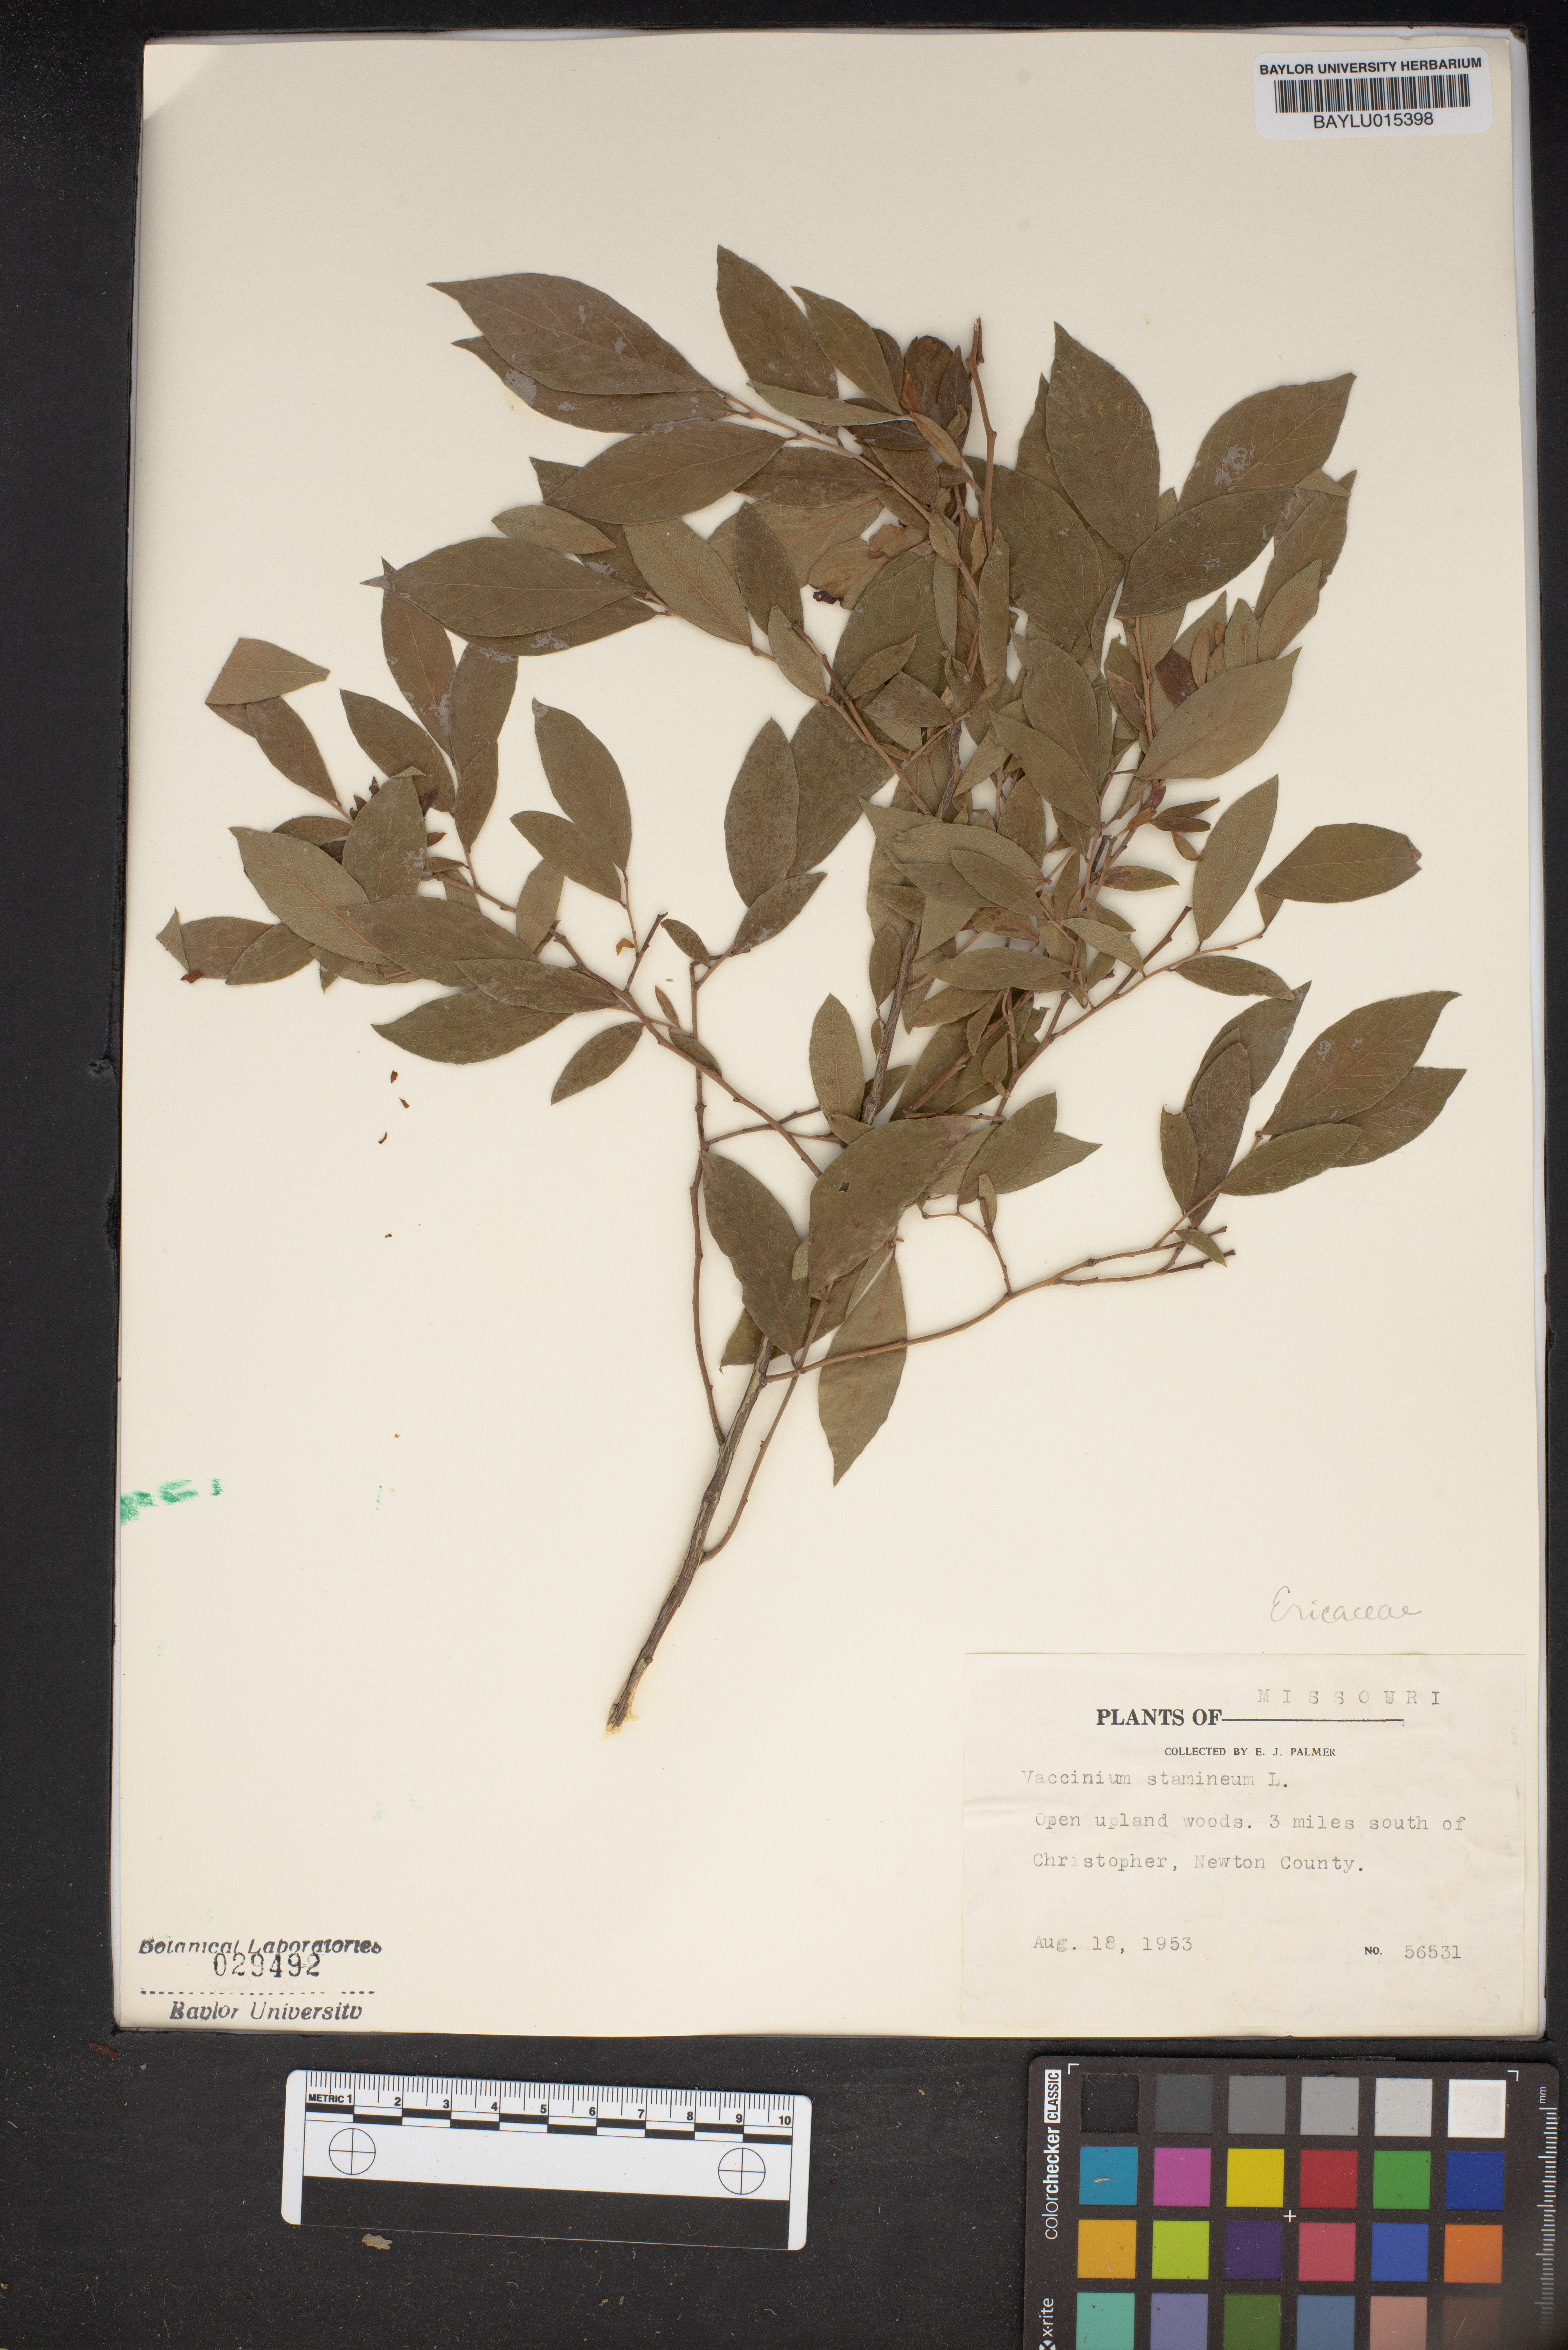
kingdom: Plantae
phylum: Tracheophyta
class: Magnoliopsida
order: Ericales
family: Ericaceae
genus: Vaccinium
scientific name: Vaccinium stamineum
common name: Deerberry
